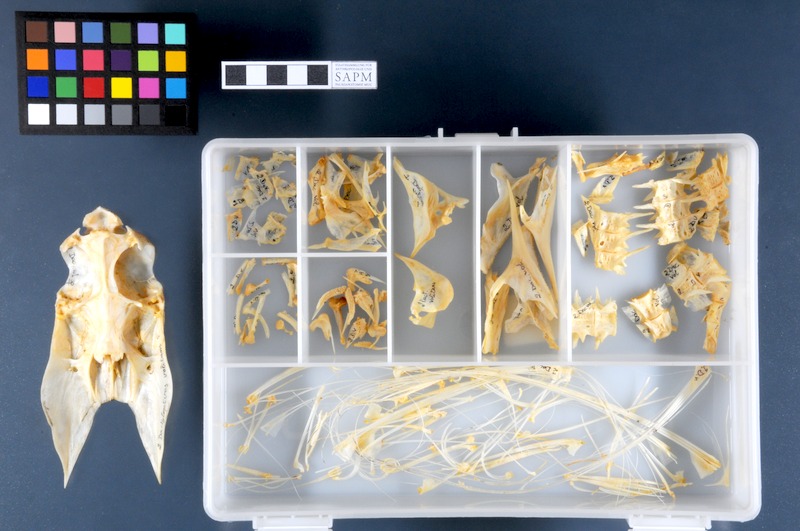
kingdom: Animalia
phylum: Chordata
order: Scorpaeniformes
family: Dactylopteridae
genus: Dactylopterus
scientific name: Dactylopterus volitans
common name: Flying gurnard
